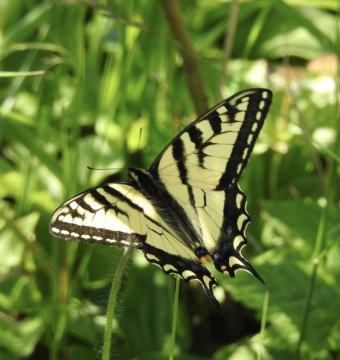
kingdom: Animalia
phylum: Arthropoda
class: Insecta
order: Lepidoptera
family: Papilionidae
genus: Pterourus
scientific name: Pterourus canadensis
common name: Canadian Tiger Swallowtail
